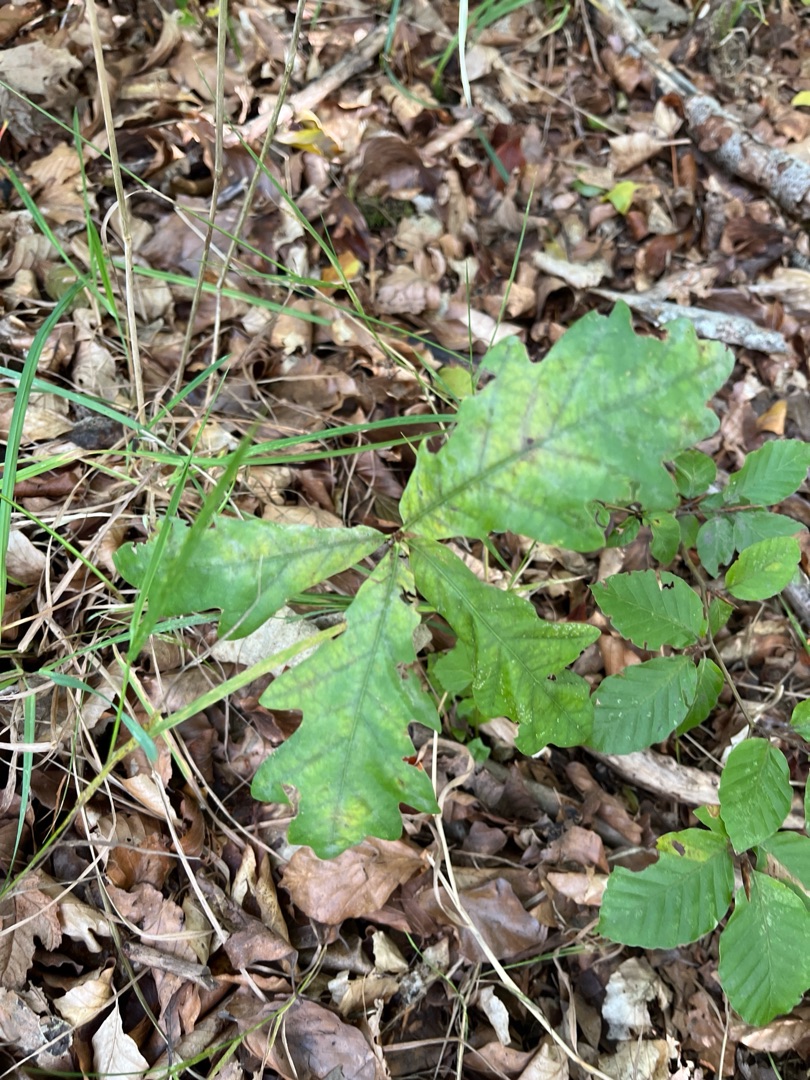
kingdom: Plantae
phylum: Tracheophyta
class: Magnoliopsida
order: Fagales
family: Fagaceae
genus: Quercus
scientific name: Quercus robur
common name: Stilk-eg/almindelig eg
